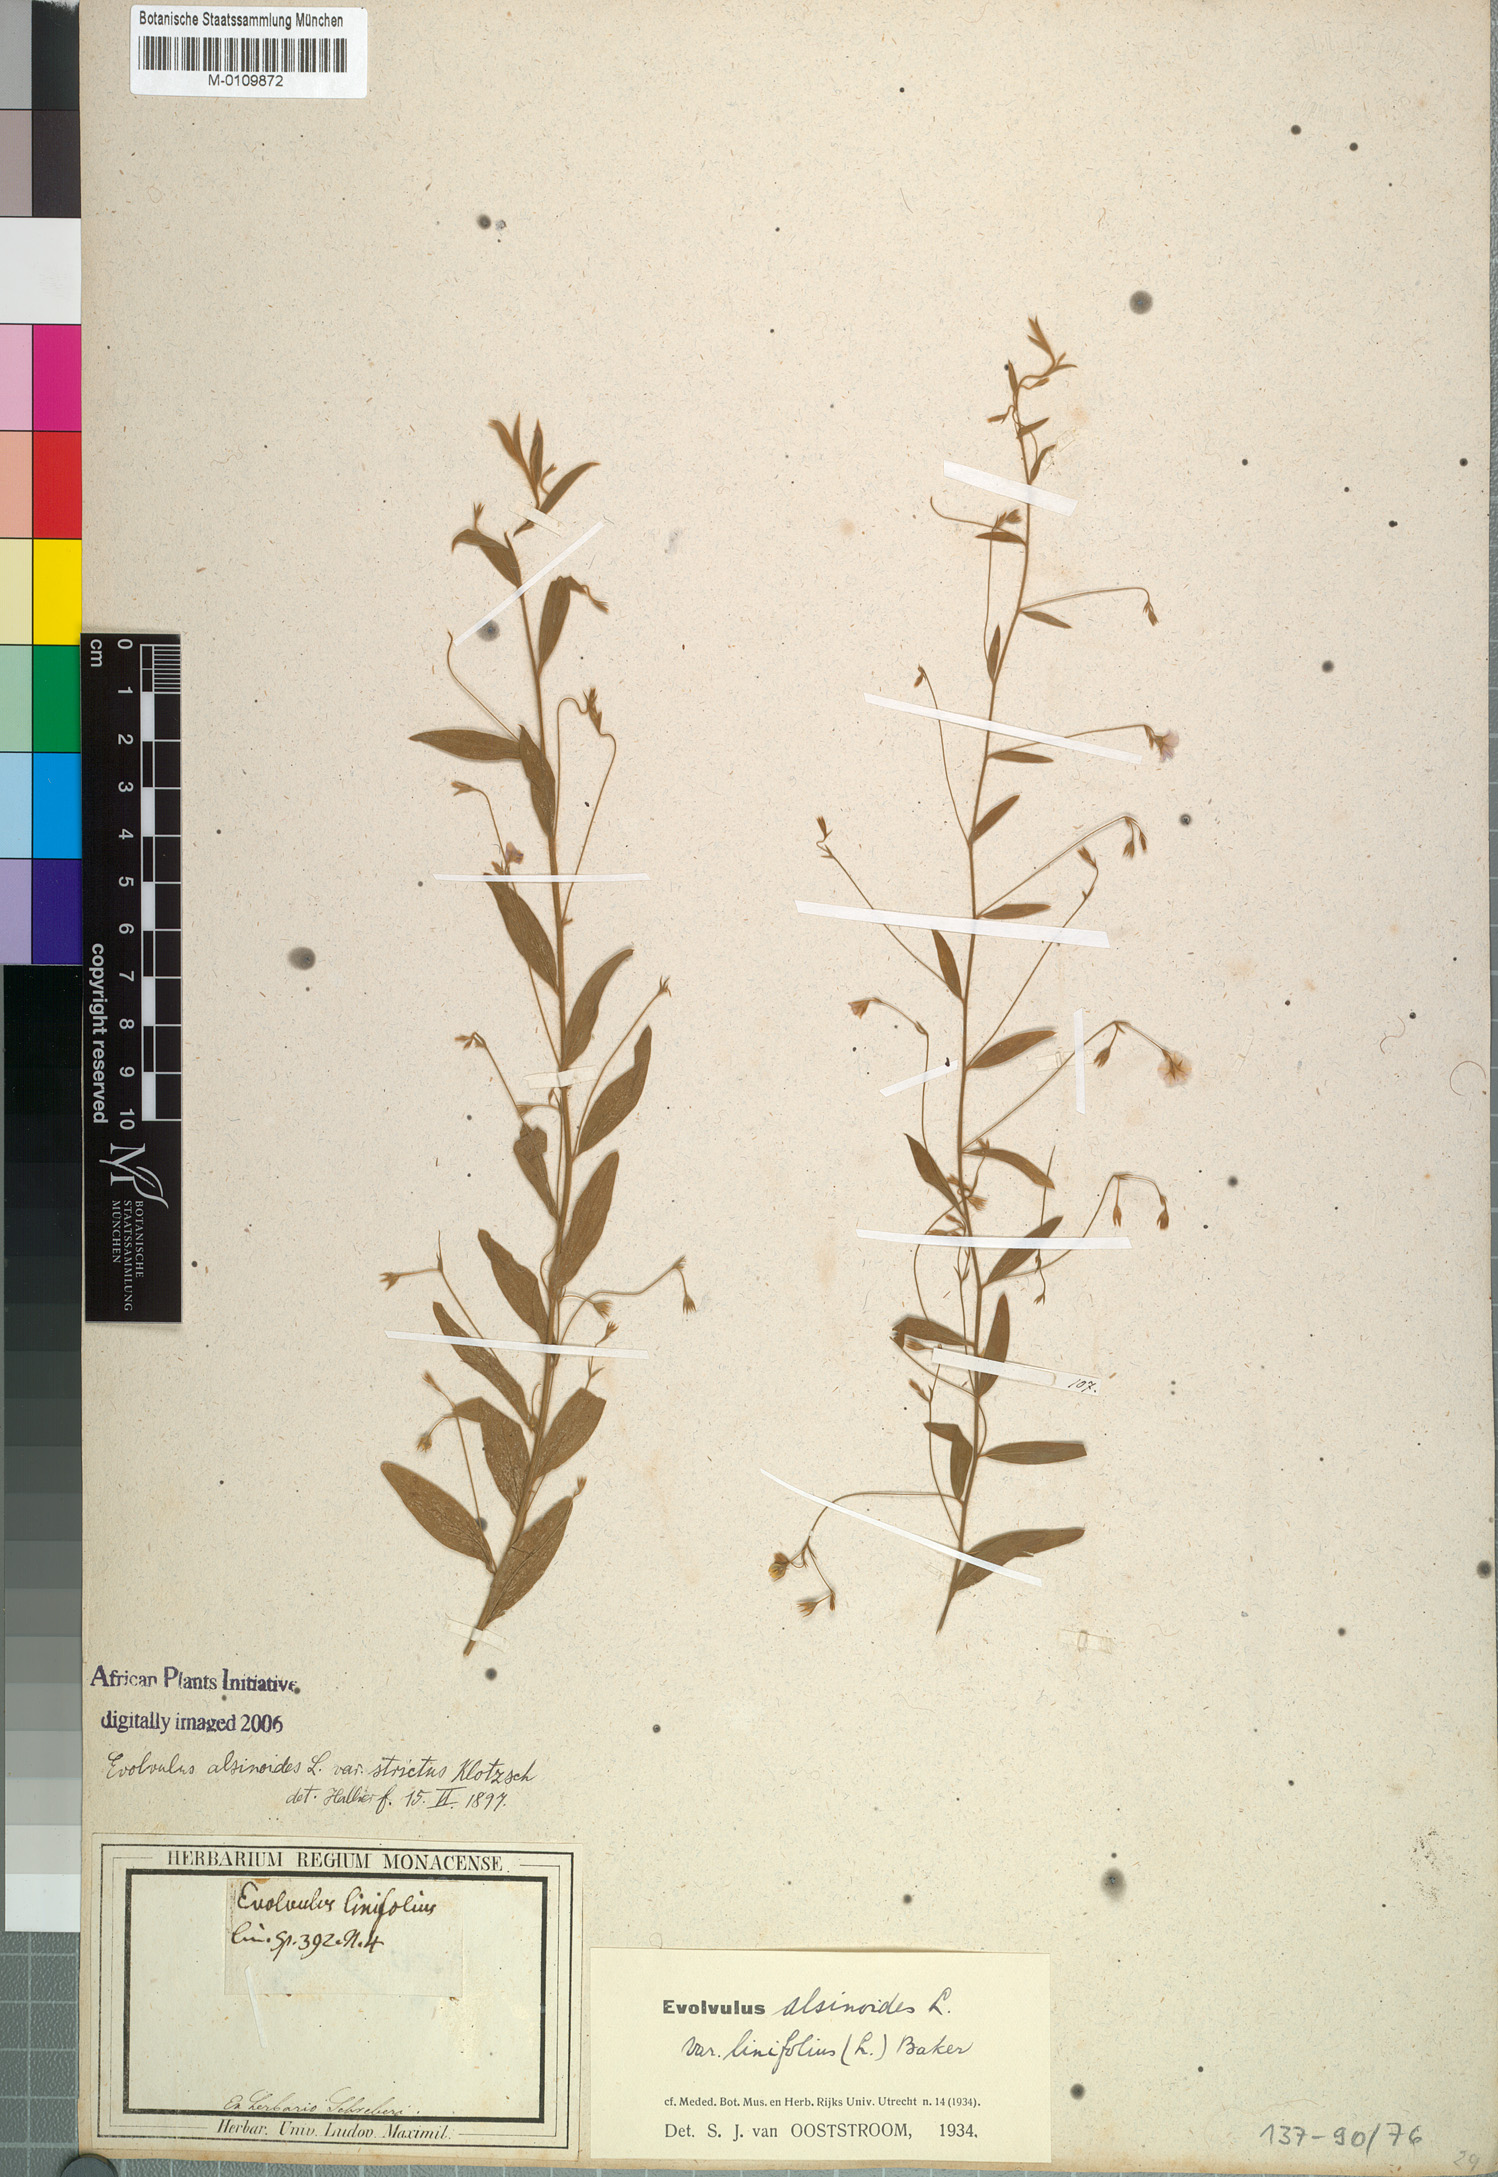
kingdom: Plantae
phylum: Tracheophyta
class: Magnoliopsida
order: Solanales
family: Convolvulaceae
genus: Evolvulus
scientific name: Evolvulus alsinoides
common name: Slender dwarf morning-glory
